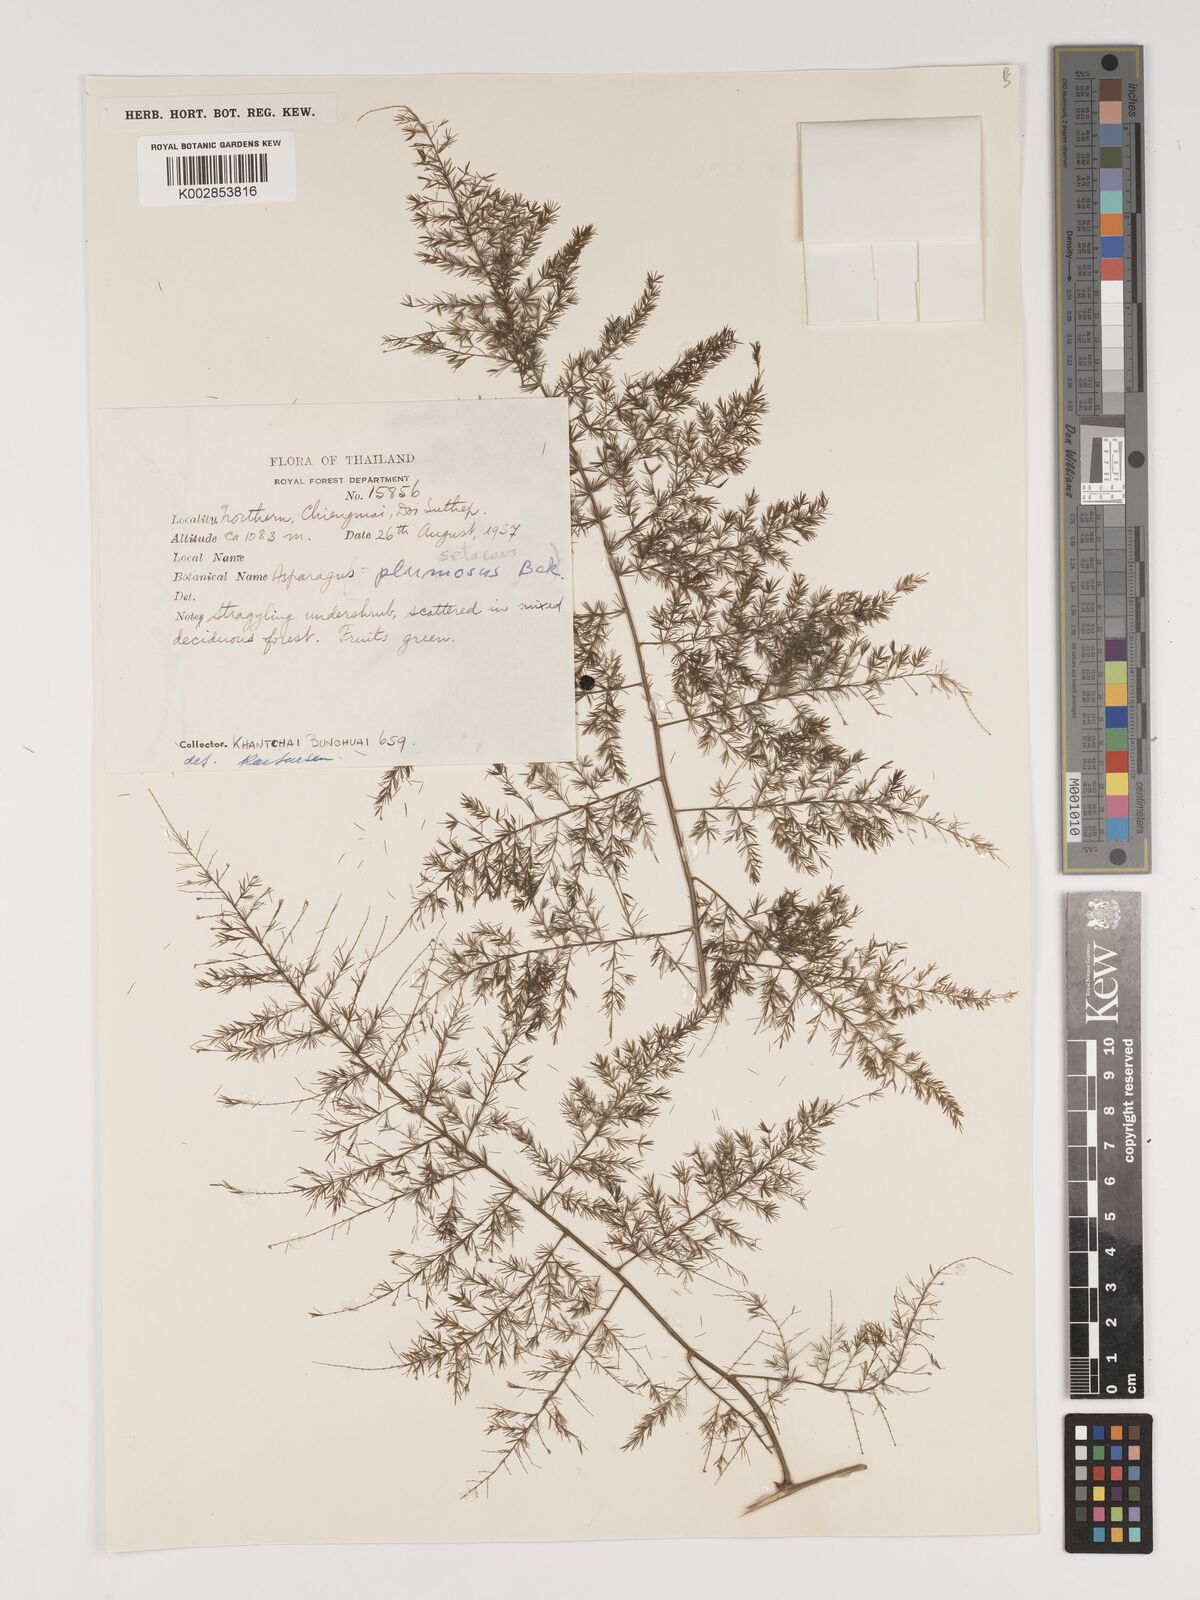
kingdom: Plantae
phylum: Tracheophyta
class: Liliopsida
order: Asparagales
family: Asparagaceae
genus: Asparagus
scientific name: Asparagus setaceus
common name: Common asparagus fern
